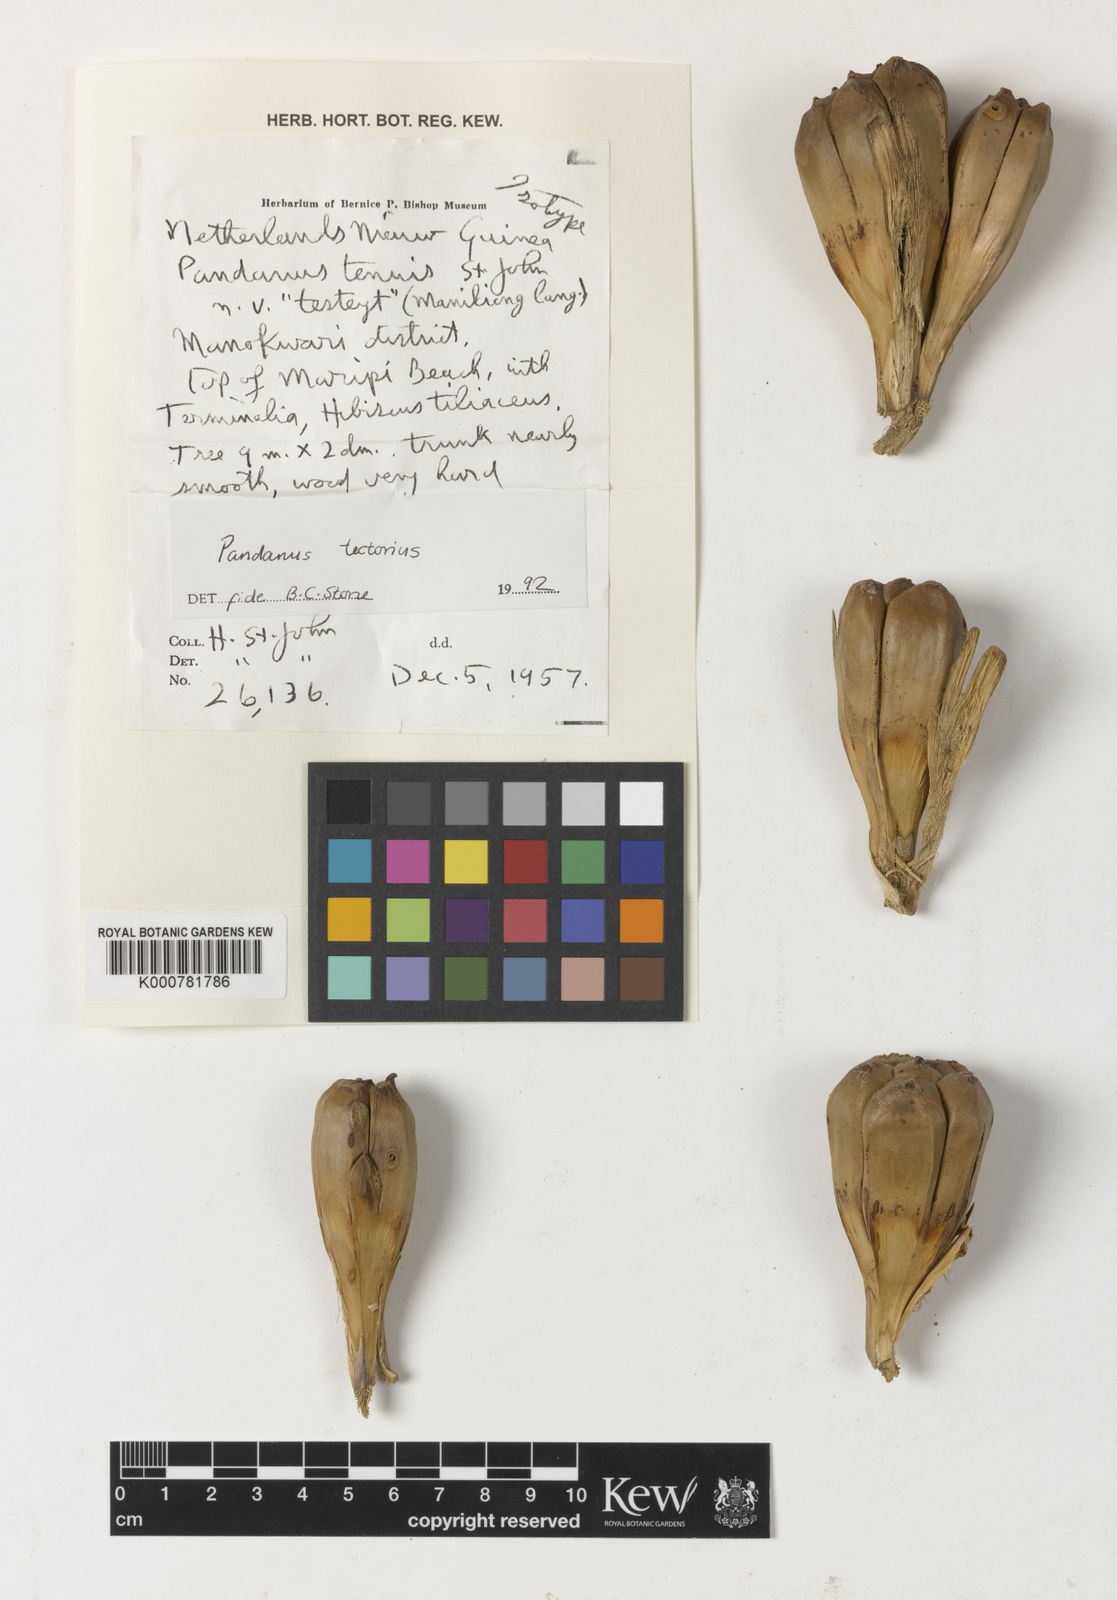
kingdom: Plantae
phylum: Tracheophyta
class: Liliopsida
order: Pandanales
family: Pandanaceae
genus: Pandanus
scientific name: Pandanus
